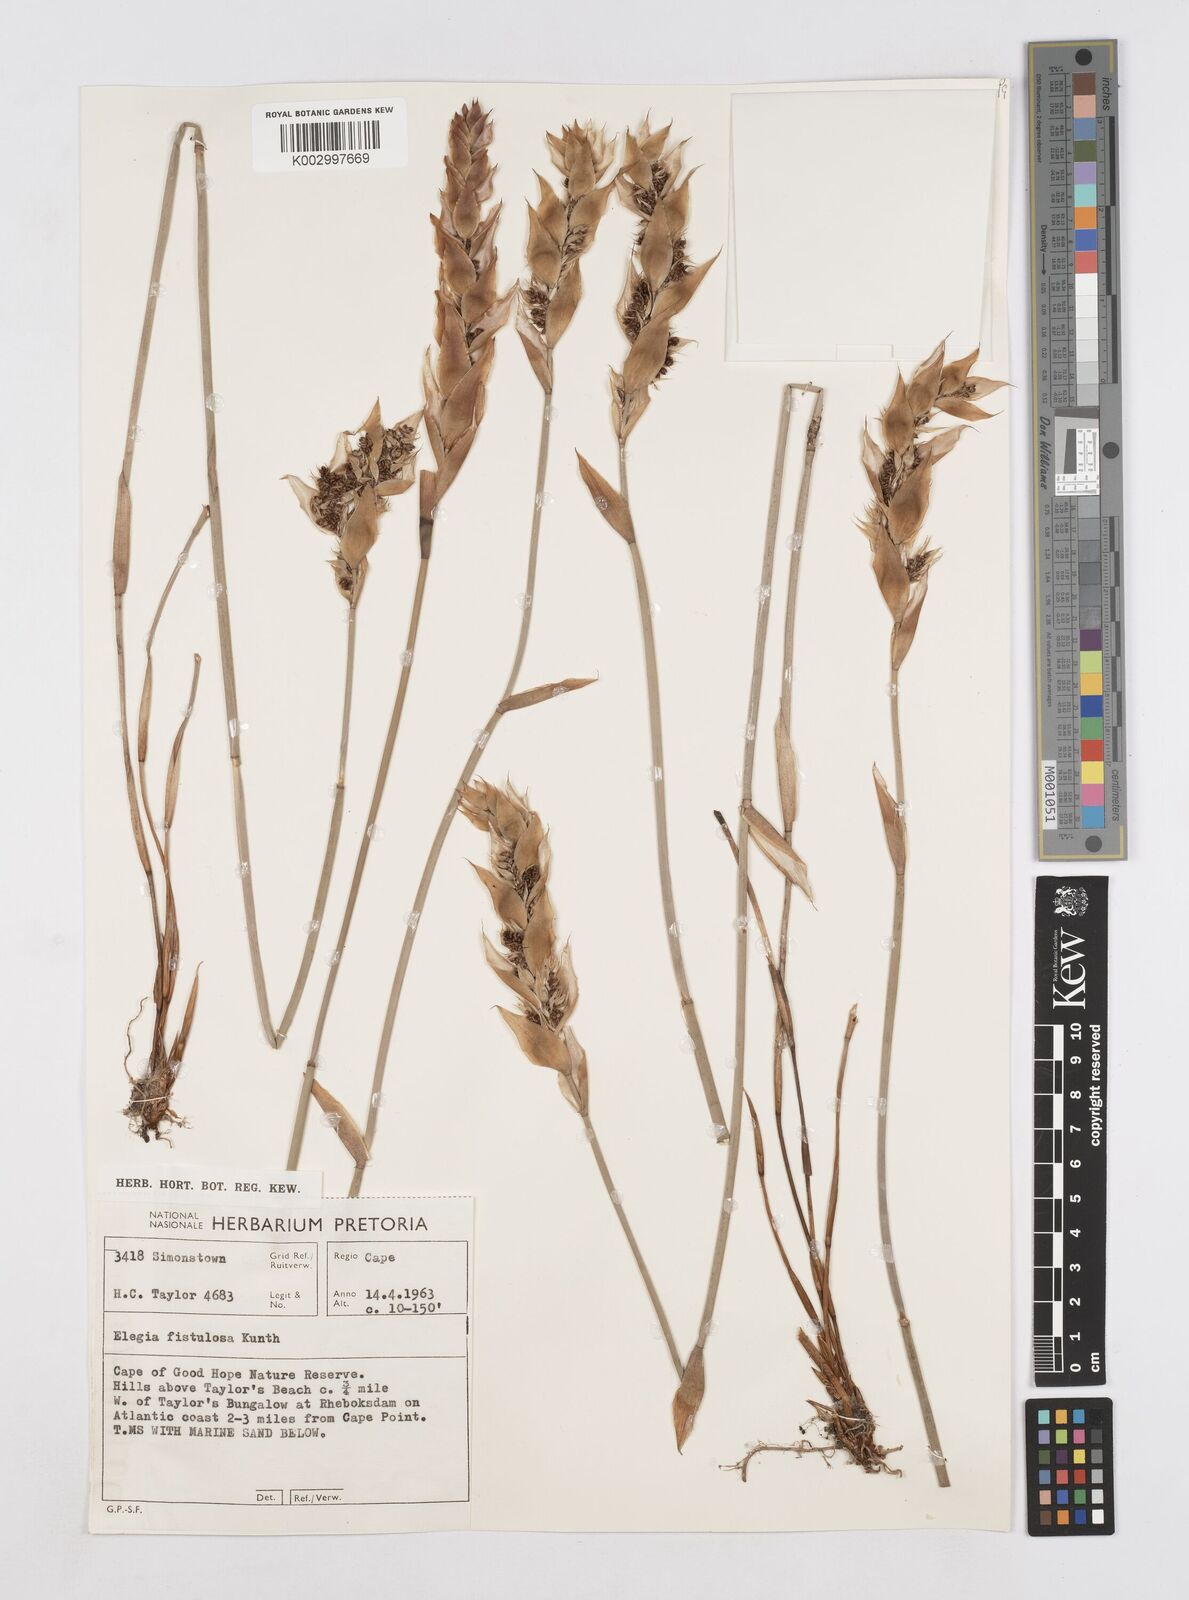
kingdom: Plantae
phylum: Tracheophyta
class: Liliopsida
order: Poales
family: Restionaceae
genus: Elegia
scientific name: Elegia fistulosa
